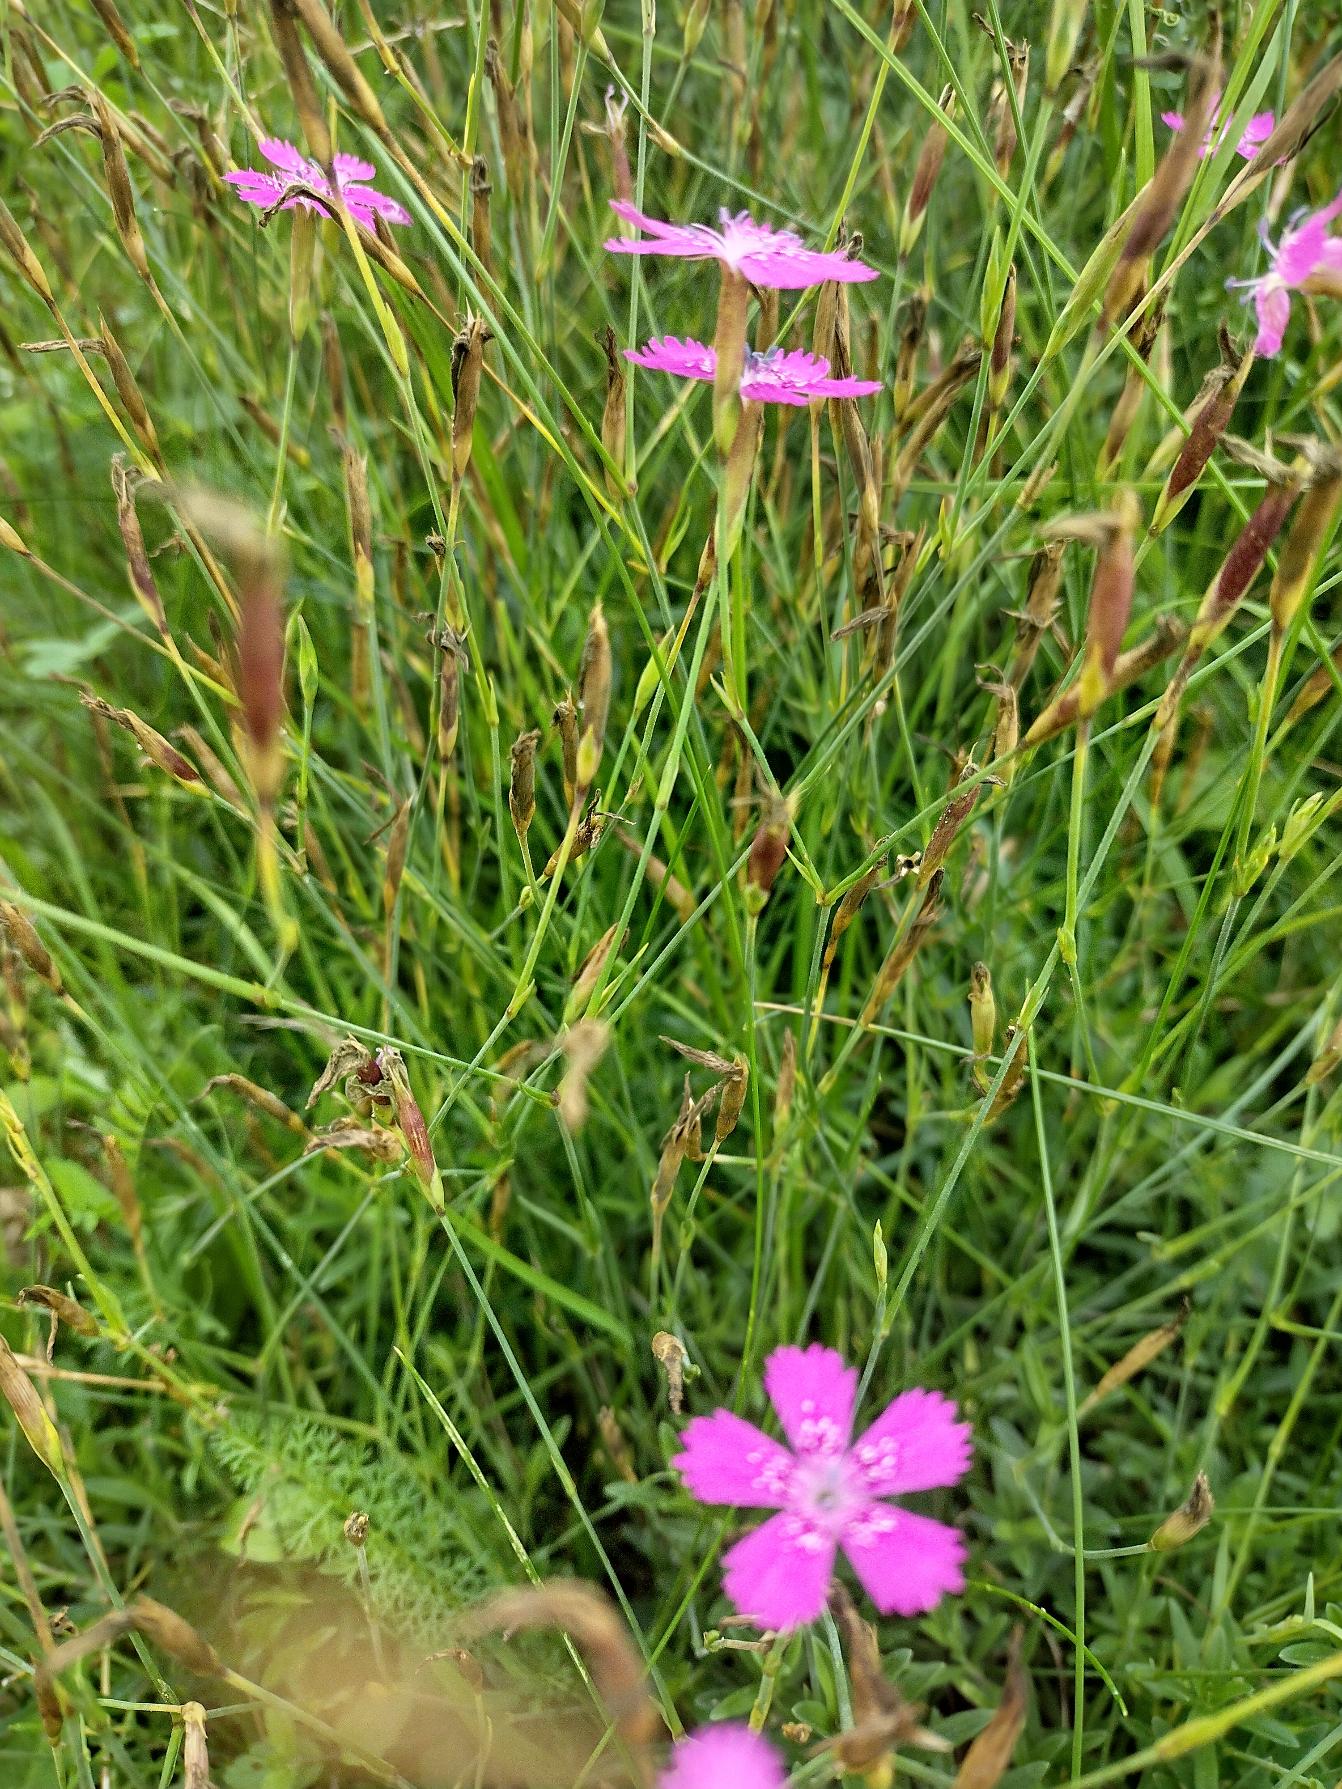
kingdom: Plantae
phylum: Tracheophyta
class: Magnoliopsida
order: Caryophyllales
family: Caryophyllaceae
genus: Dianthus
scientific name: Dianthus deltoides
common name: Bakke-nellike
